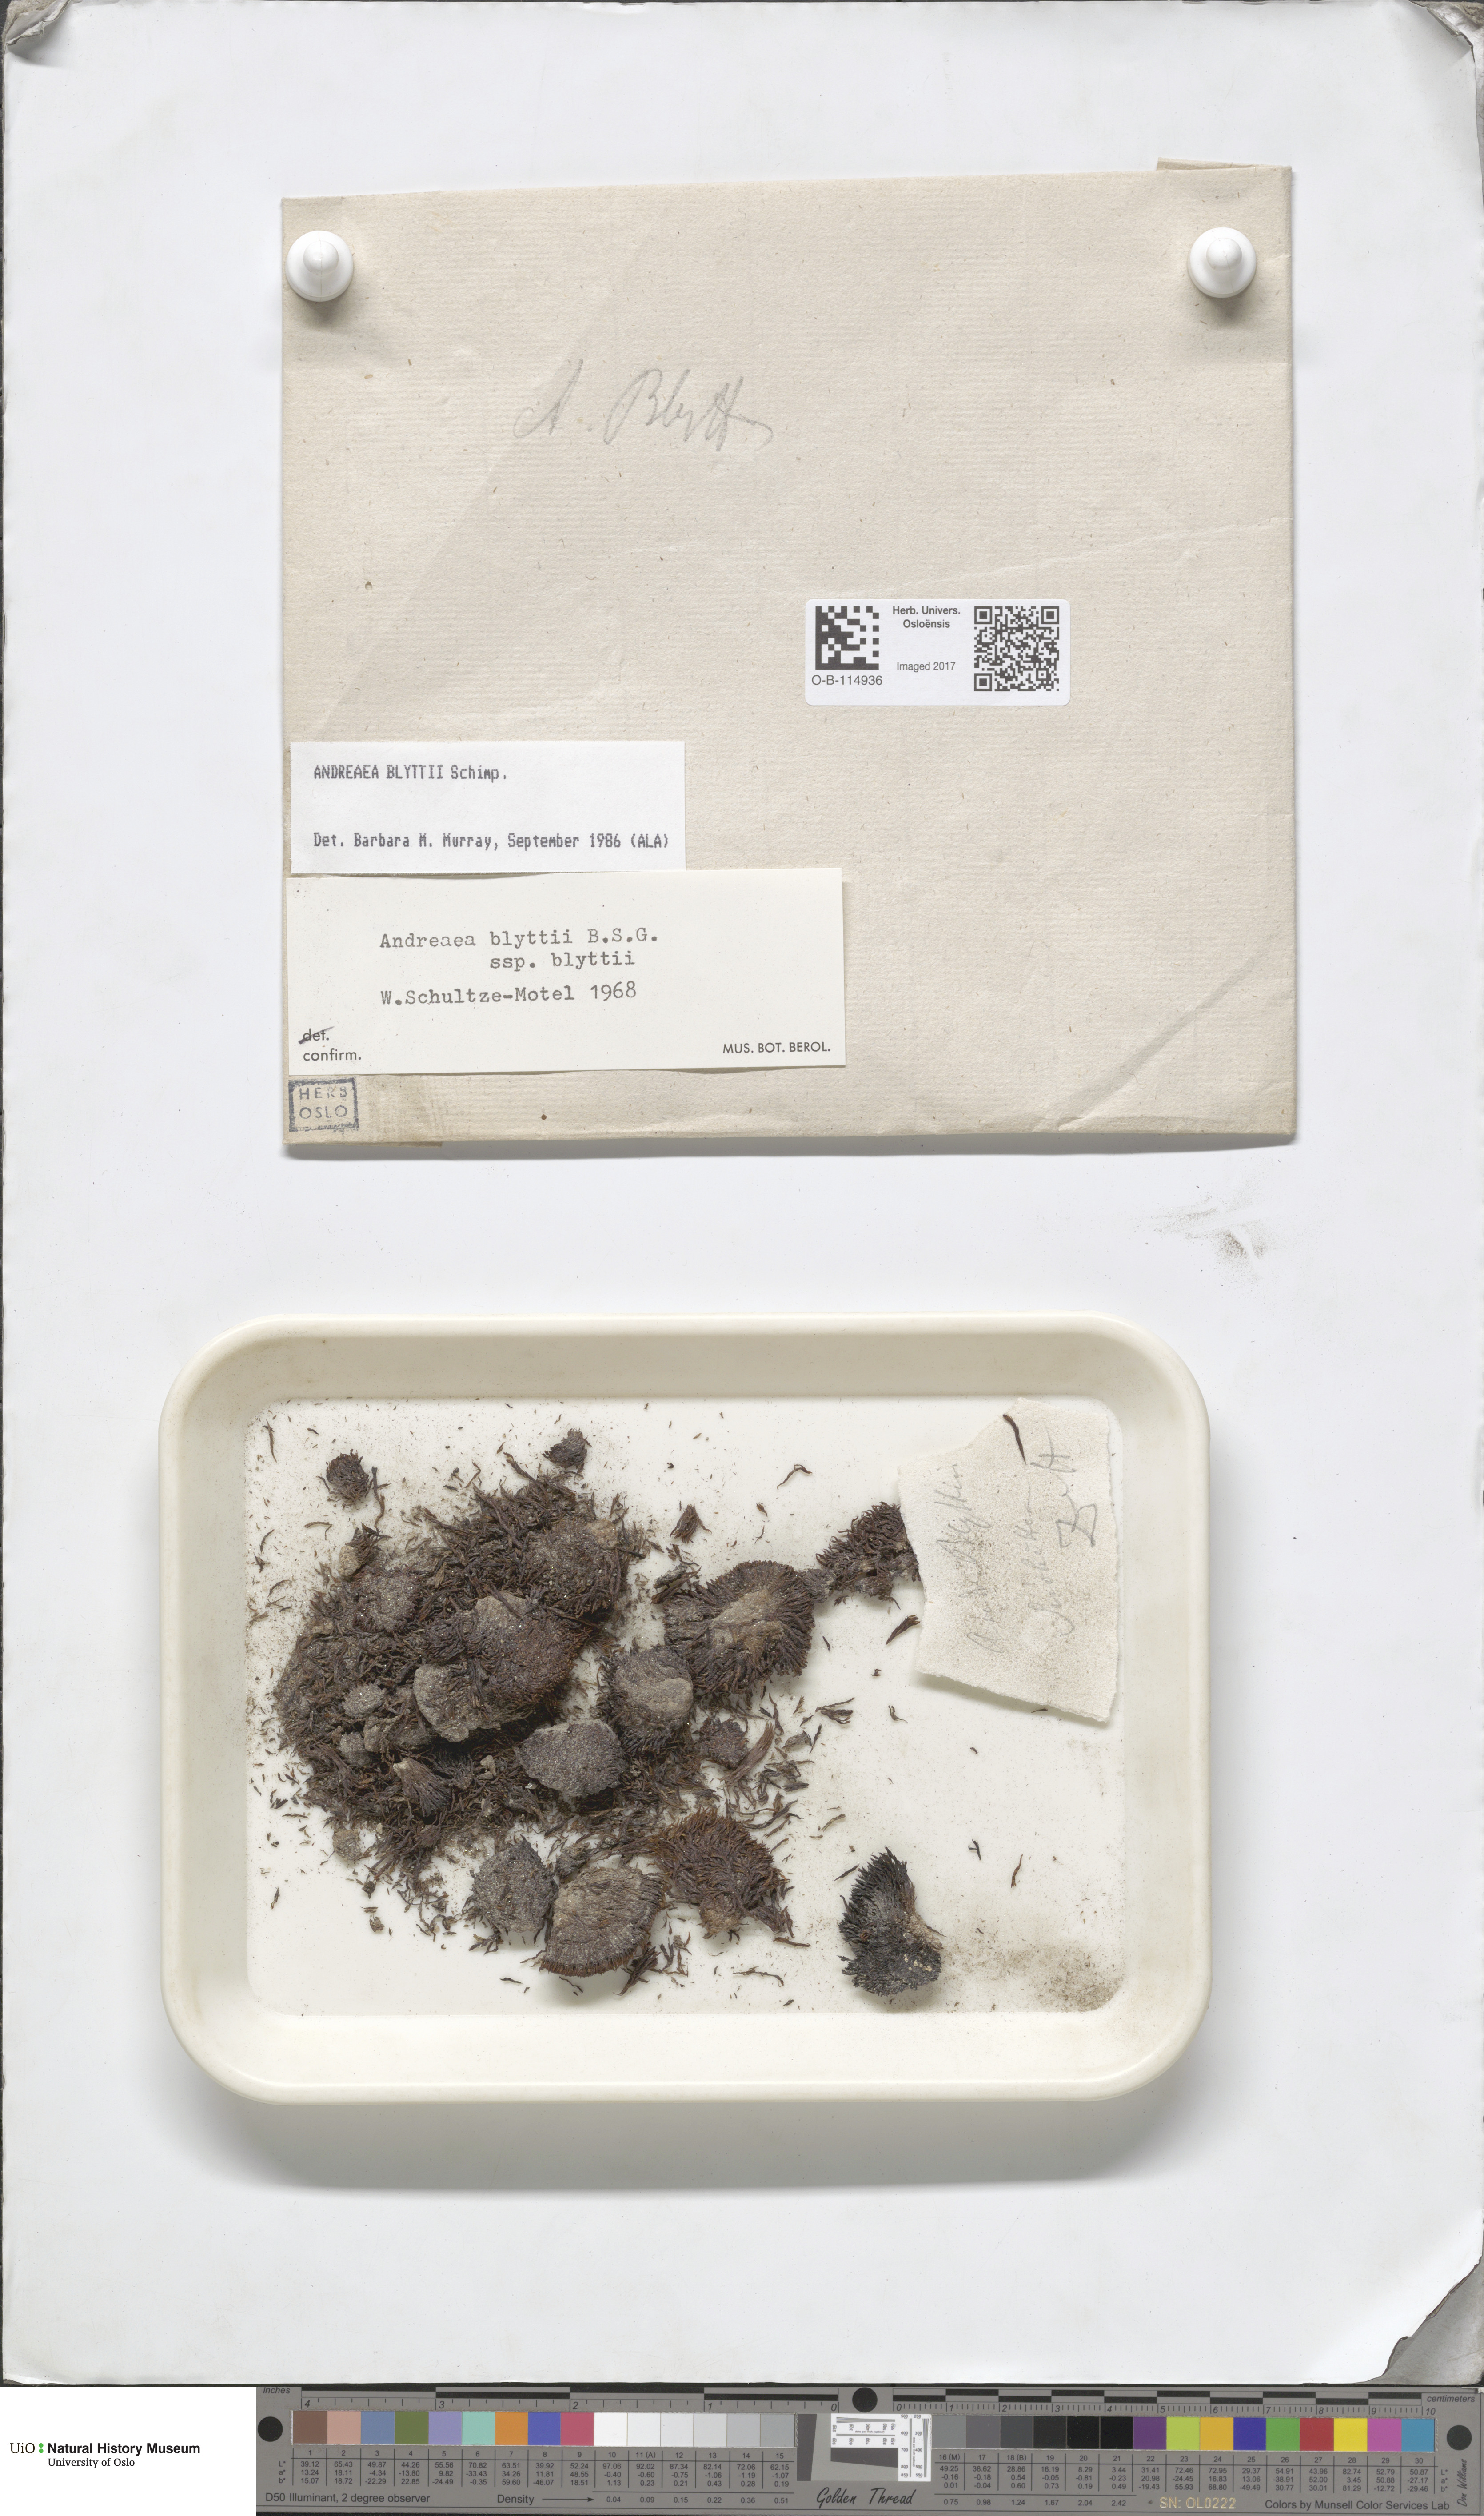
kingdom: Plantae
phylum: Bryophyta
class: Andreaeopsida
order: Andreaeales
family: Andreaeaceae
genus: Andreaea
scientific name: Andreaea blyttii
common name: Blytt's rock moss
